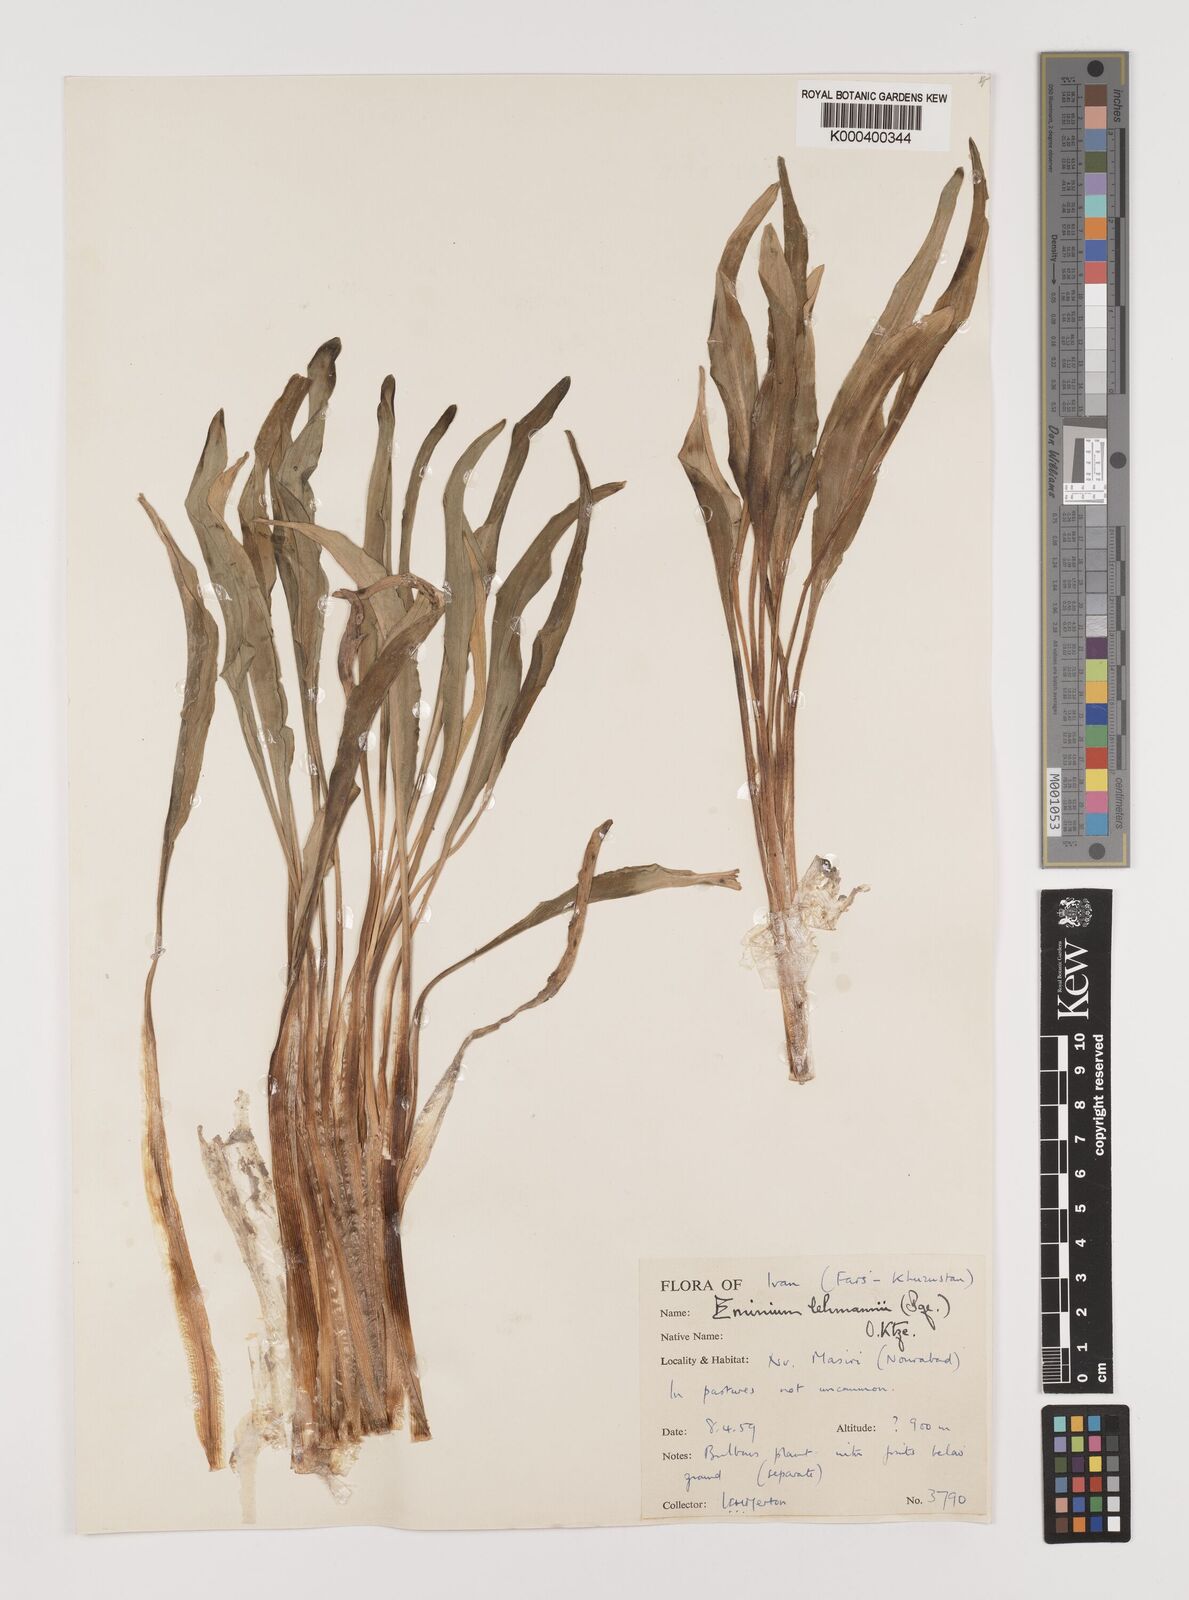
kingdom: Plantae
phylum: Tracheophyta
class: Liliopsida
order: Alismatales
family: Araceae
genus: Eminium
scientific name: Eminium lehmannii
